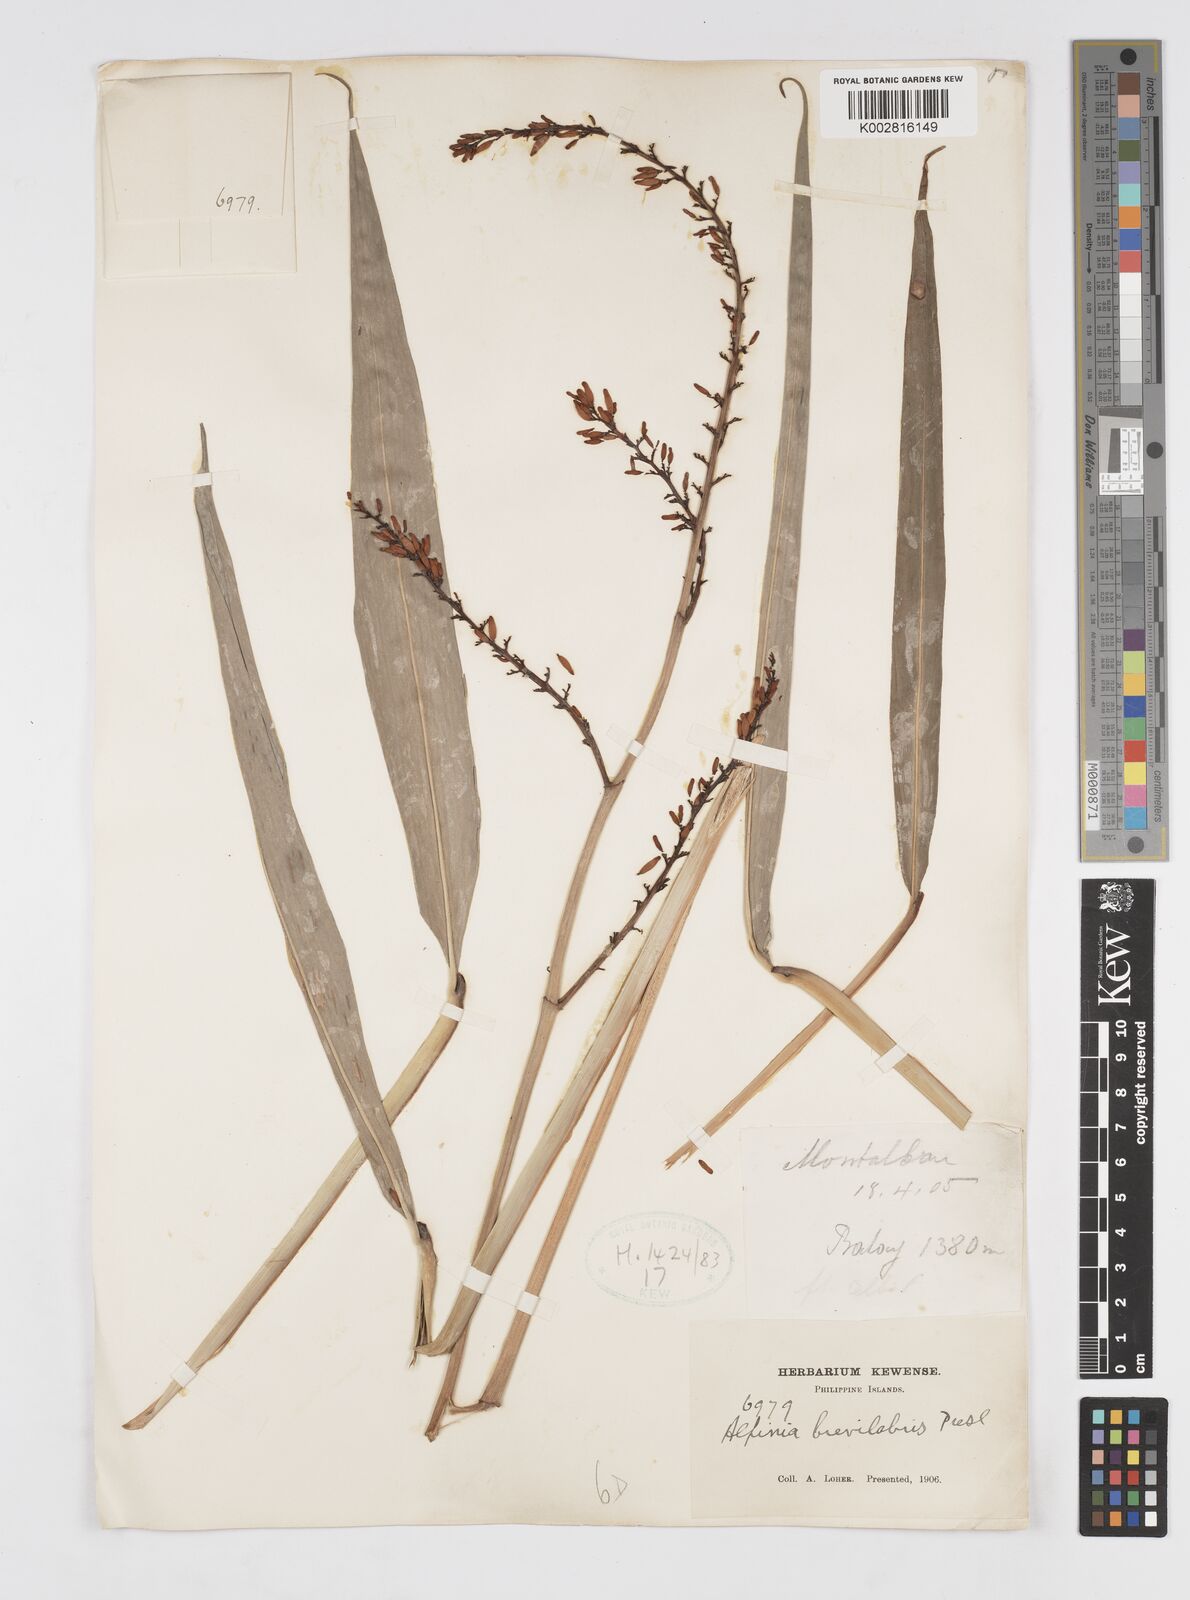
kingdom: Plantae
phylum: Tracheophyta
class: Liliopsida
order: Zingiberales
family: Zingiberaceae
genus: Alpinia
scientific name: Alpinia brevilabris
